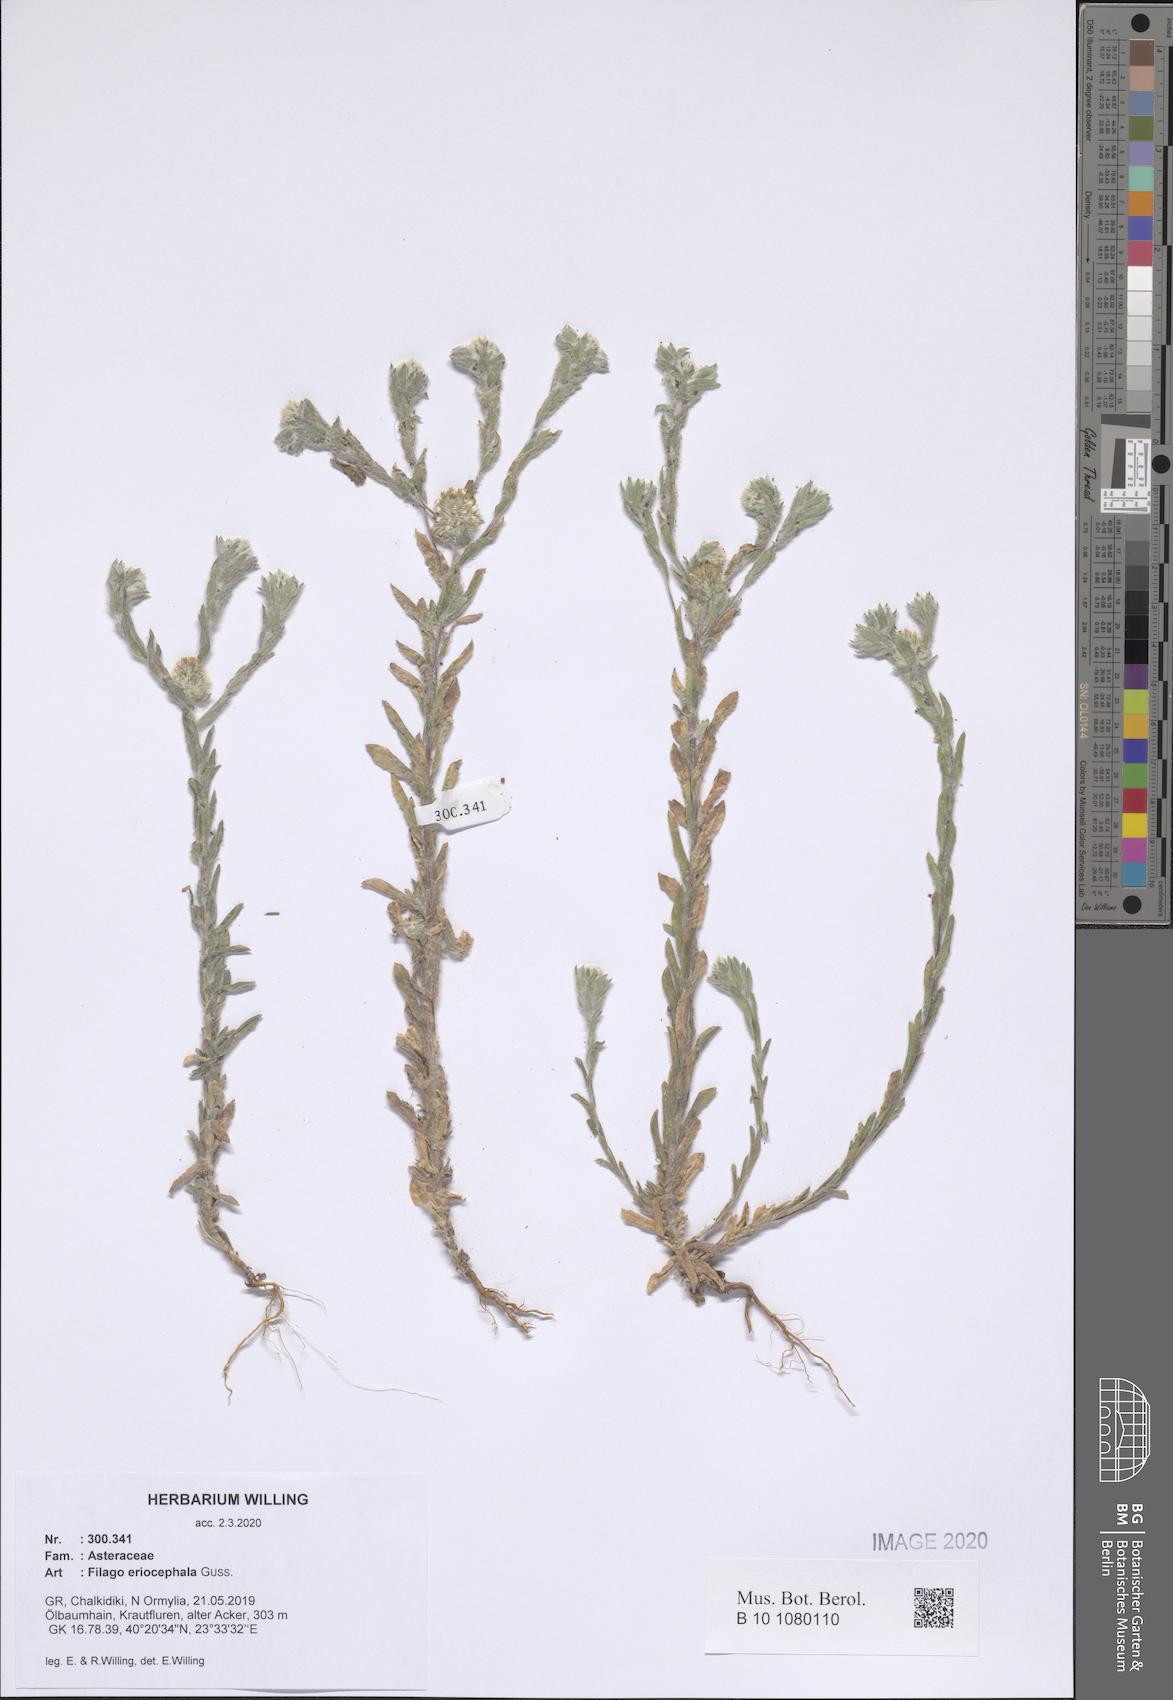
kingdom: Plantae
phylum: Tracheophyta
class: Magnoliopsida
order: Asterales
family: Asteraceae
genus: Filago
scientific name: Filago eriocephala
